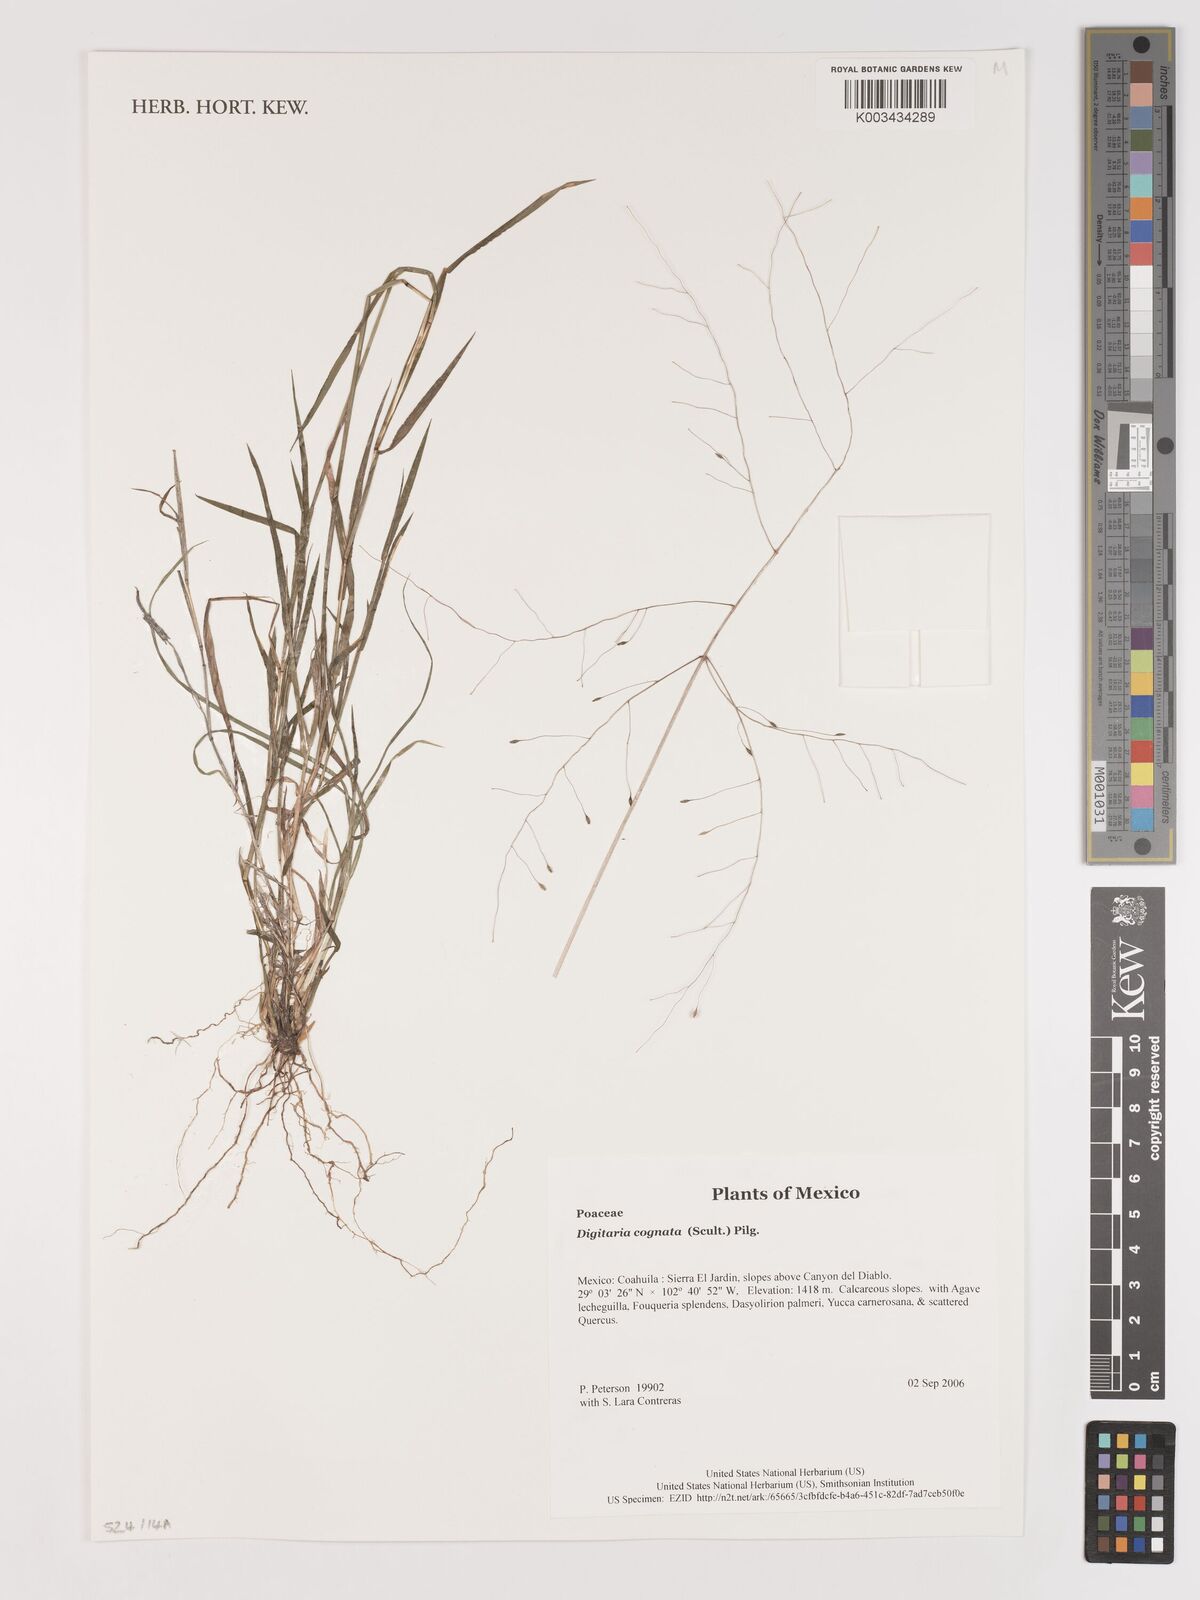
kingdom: Plantae
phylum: Tracheophyta
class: Liliopsida
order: Poales
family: Poaceae
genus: Digitaria
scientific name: Digitaria cognata
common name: Fall witchgrass
